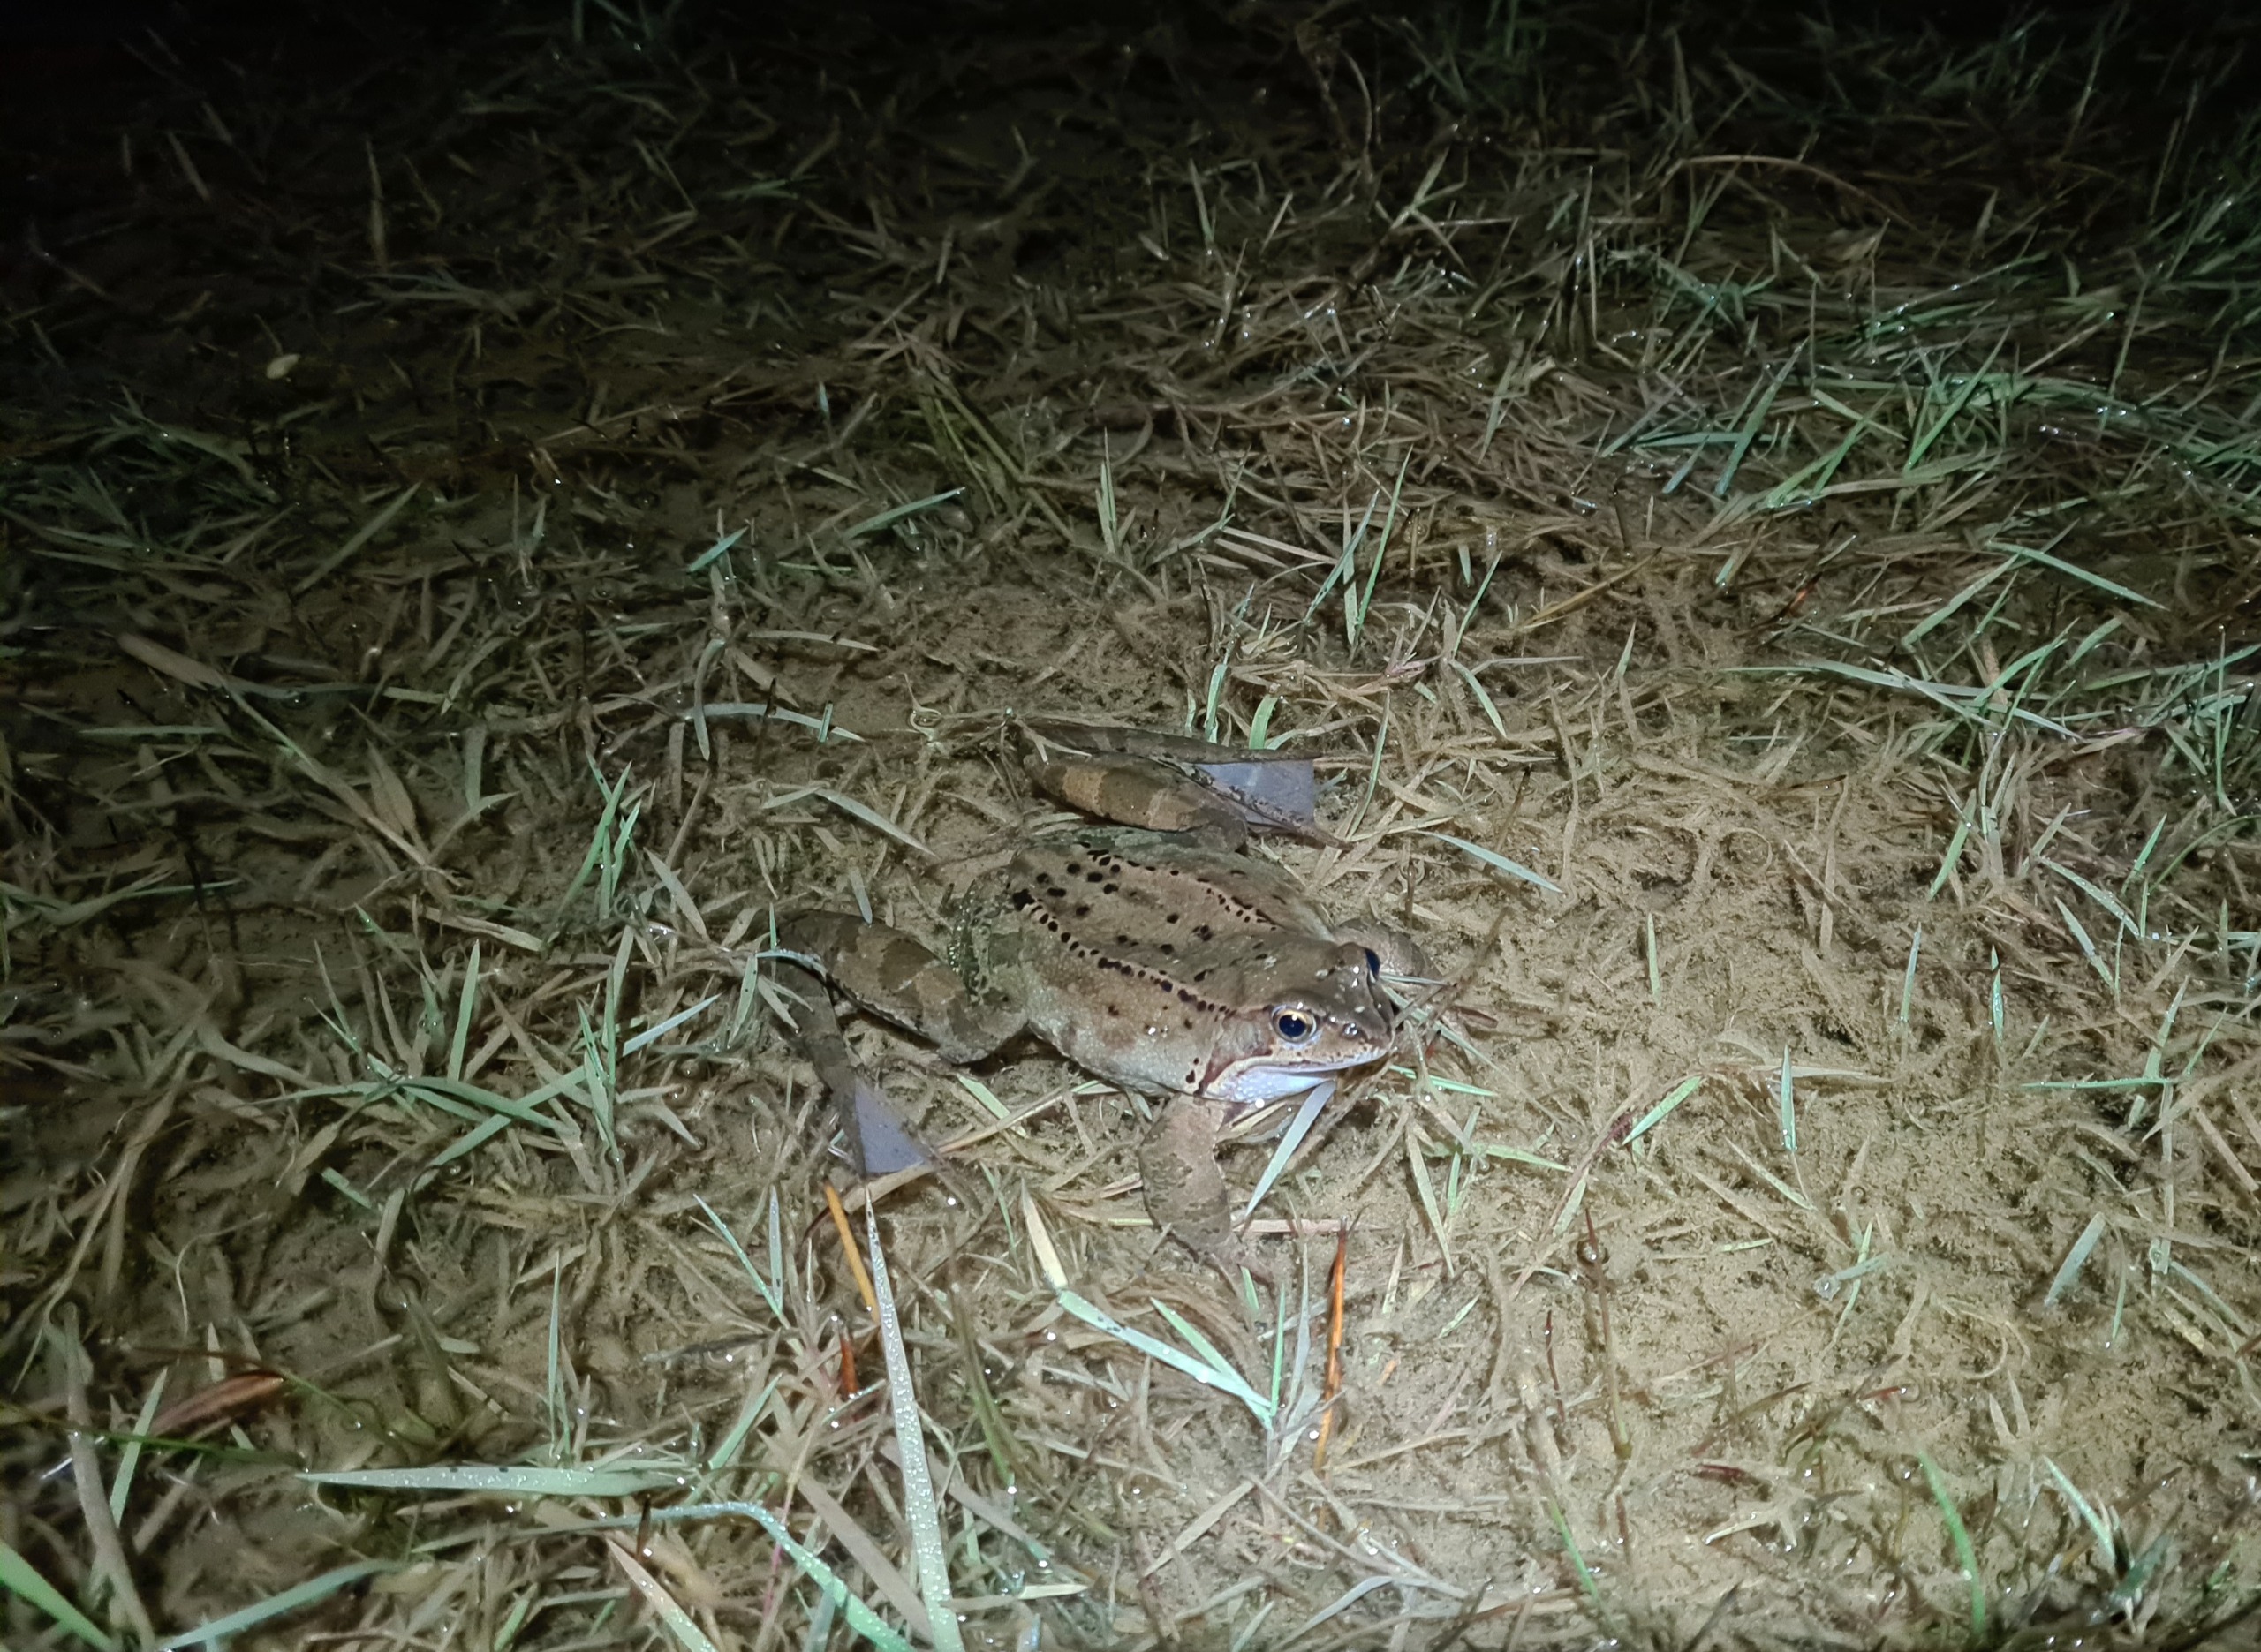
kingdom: Animalia
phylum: Chordata
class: Amphibia
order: Anura
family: Ranidae
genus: Rana
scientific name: Rana temporaria
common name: Butsnudet frø
